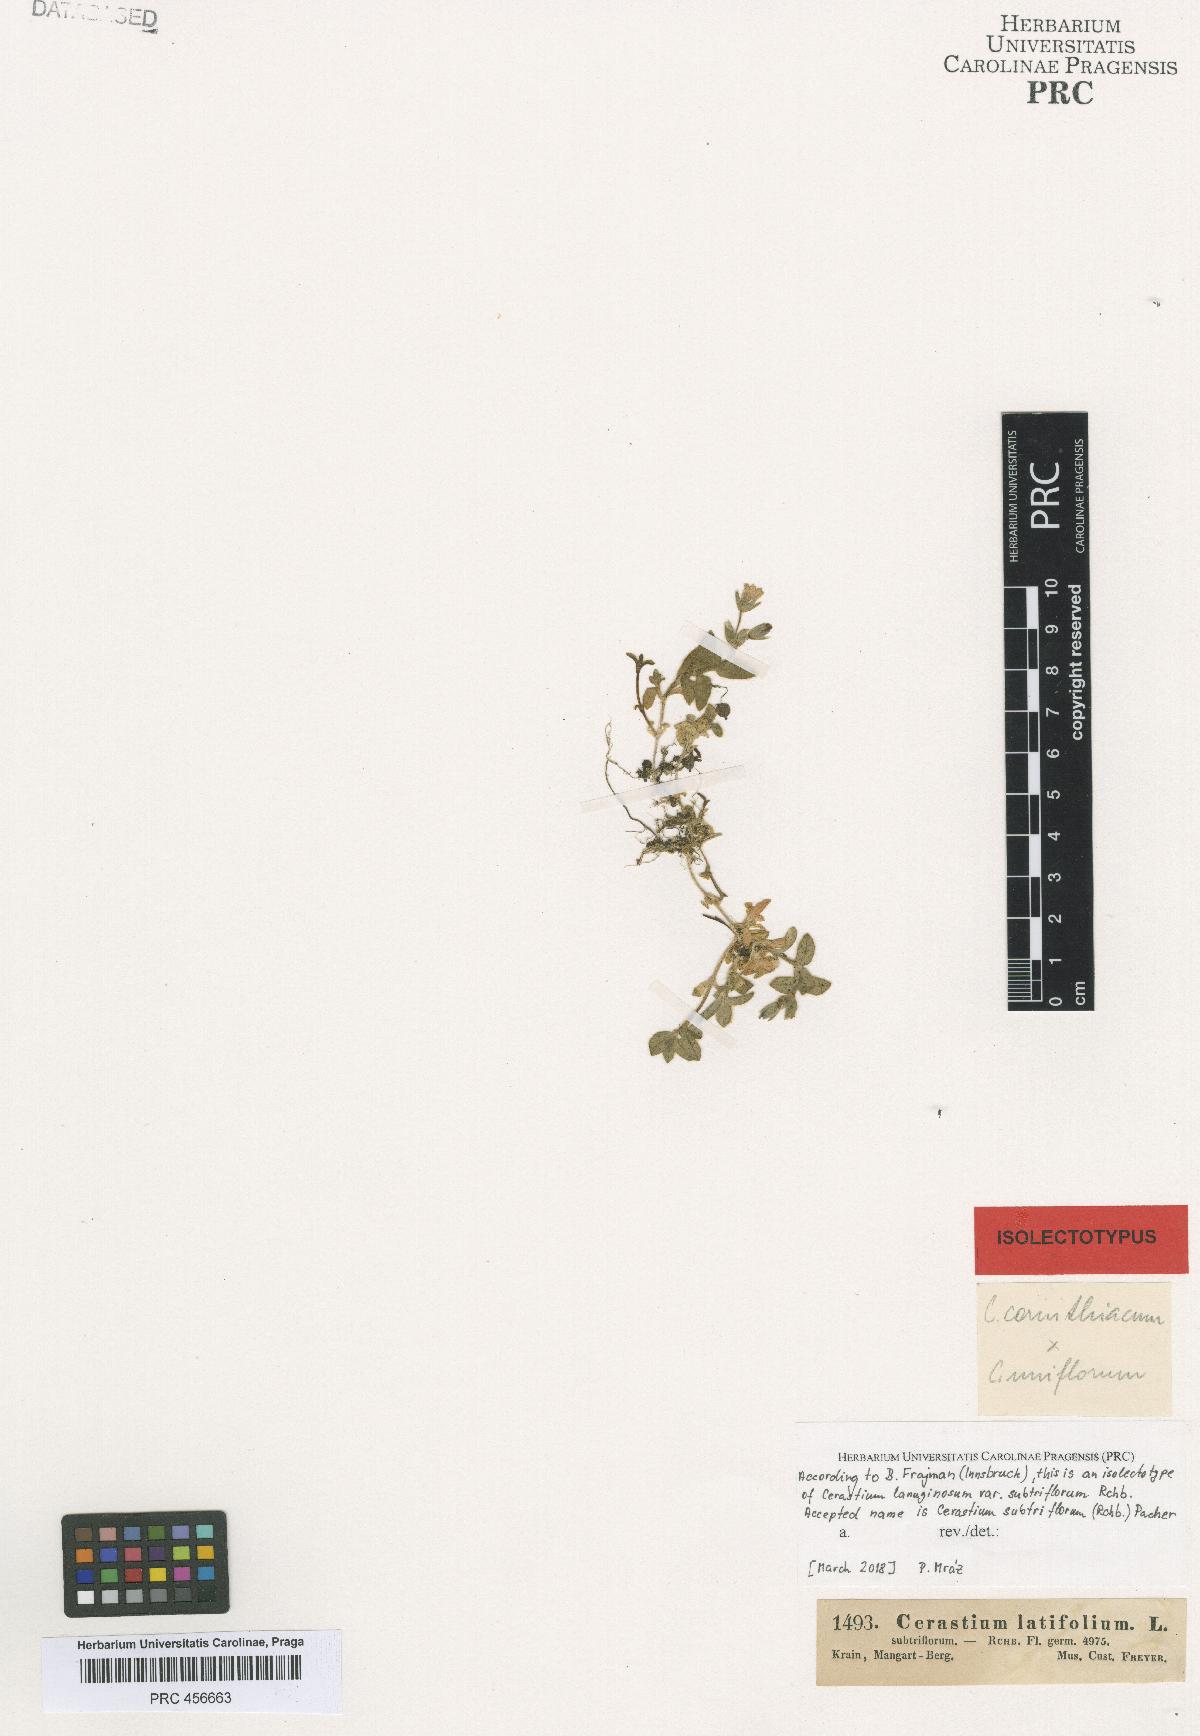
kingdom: Plantae
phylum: Tracheophyta
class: Magnoliopsida
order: Caryophyllales
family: Caryophyllaceae
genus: Cerastium
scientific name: Cerastium subtriflorum
